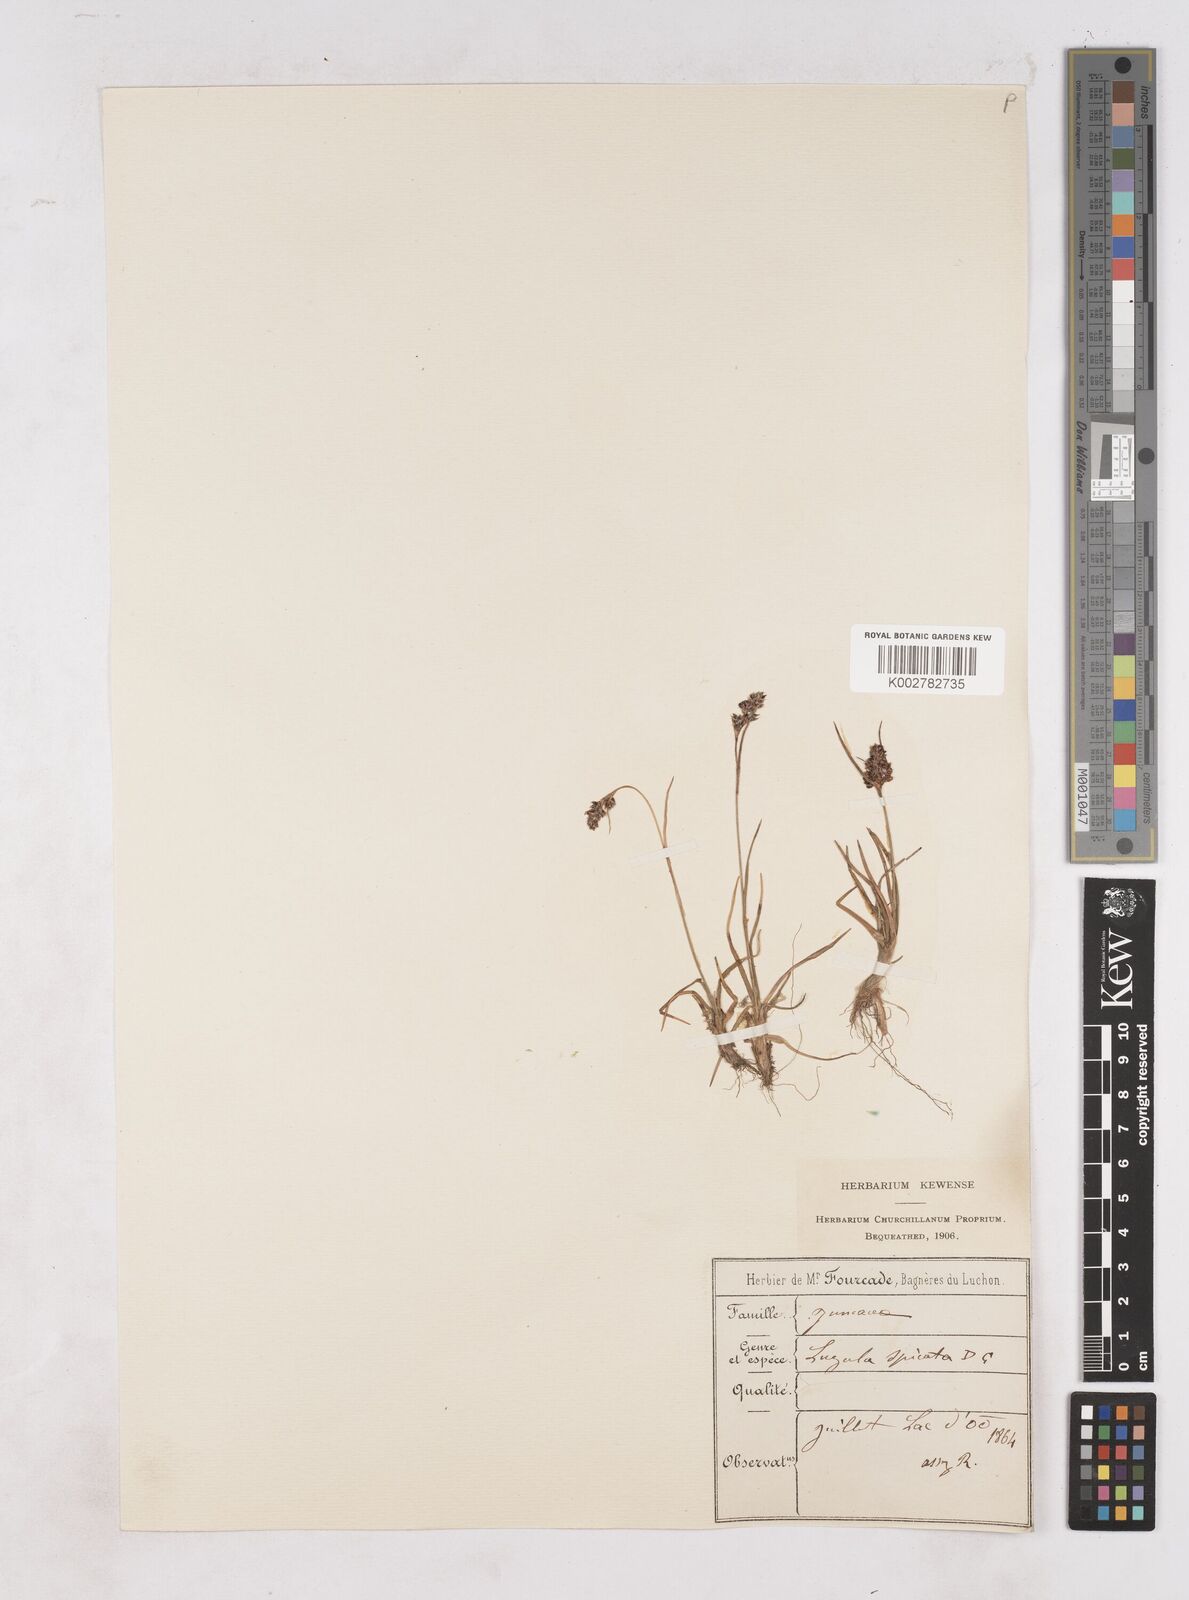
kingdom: Plantae
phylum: Tracheophyta
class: Liliopsida
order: Poales
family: Juncaceae
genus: Luzula
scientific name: Luzula spicata
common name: Spiked wood-rush
